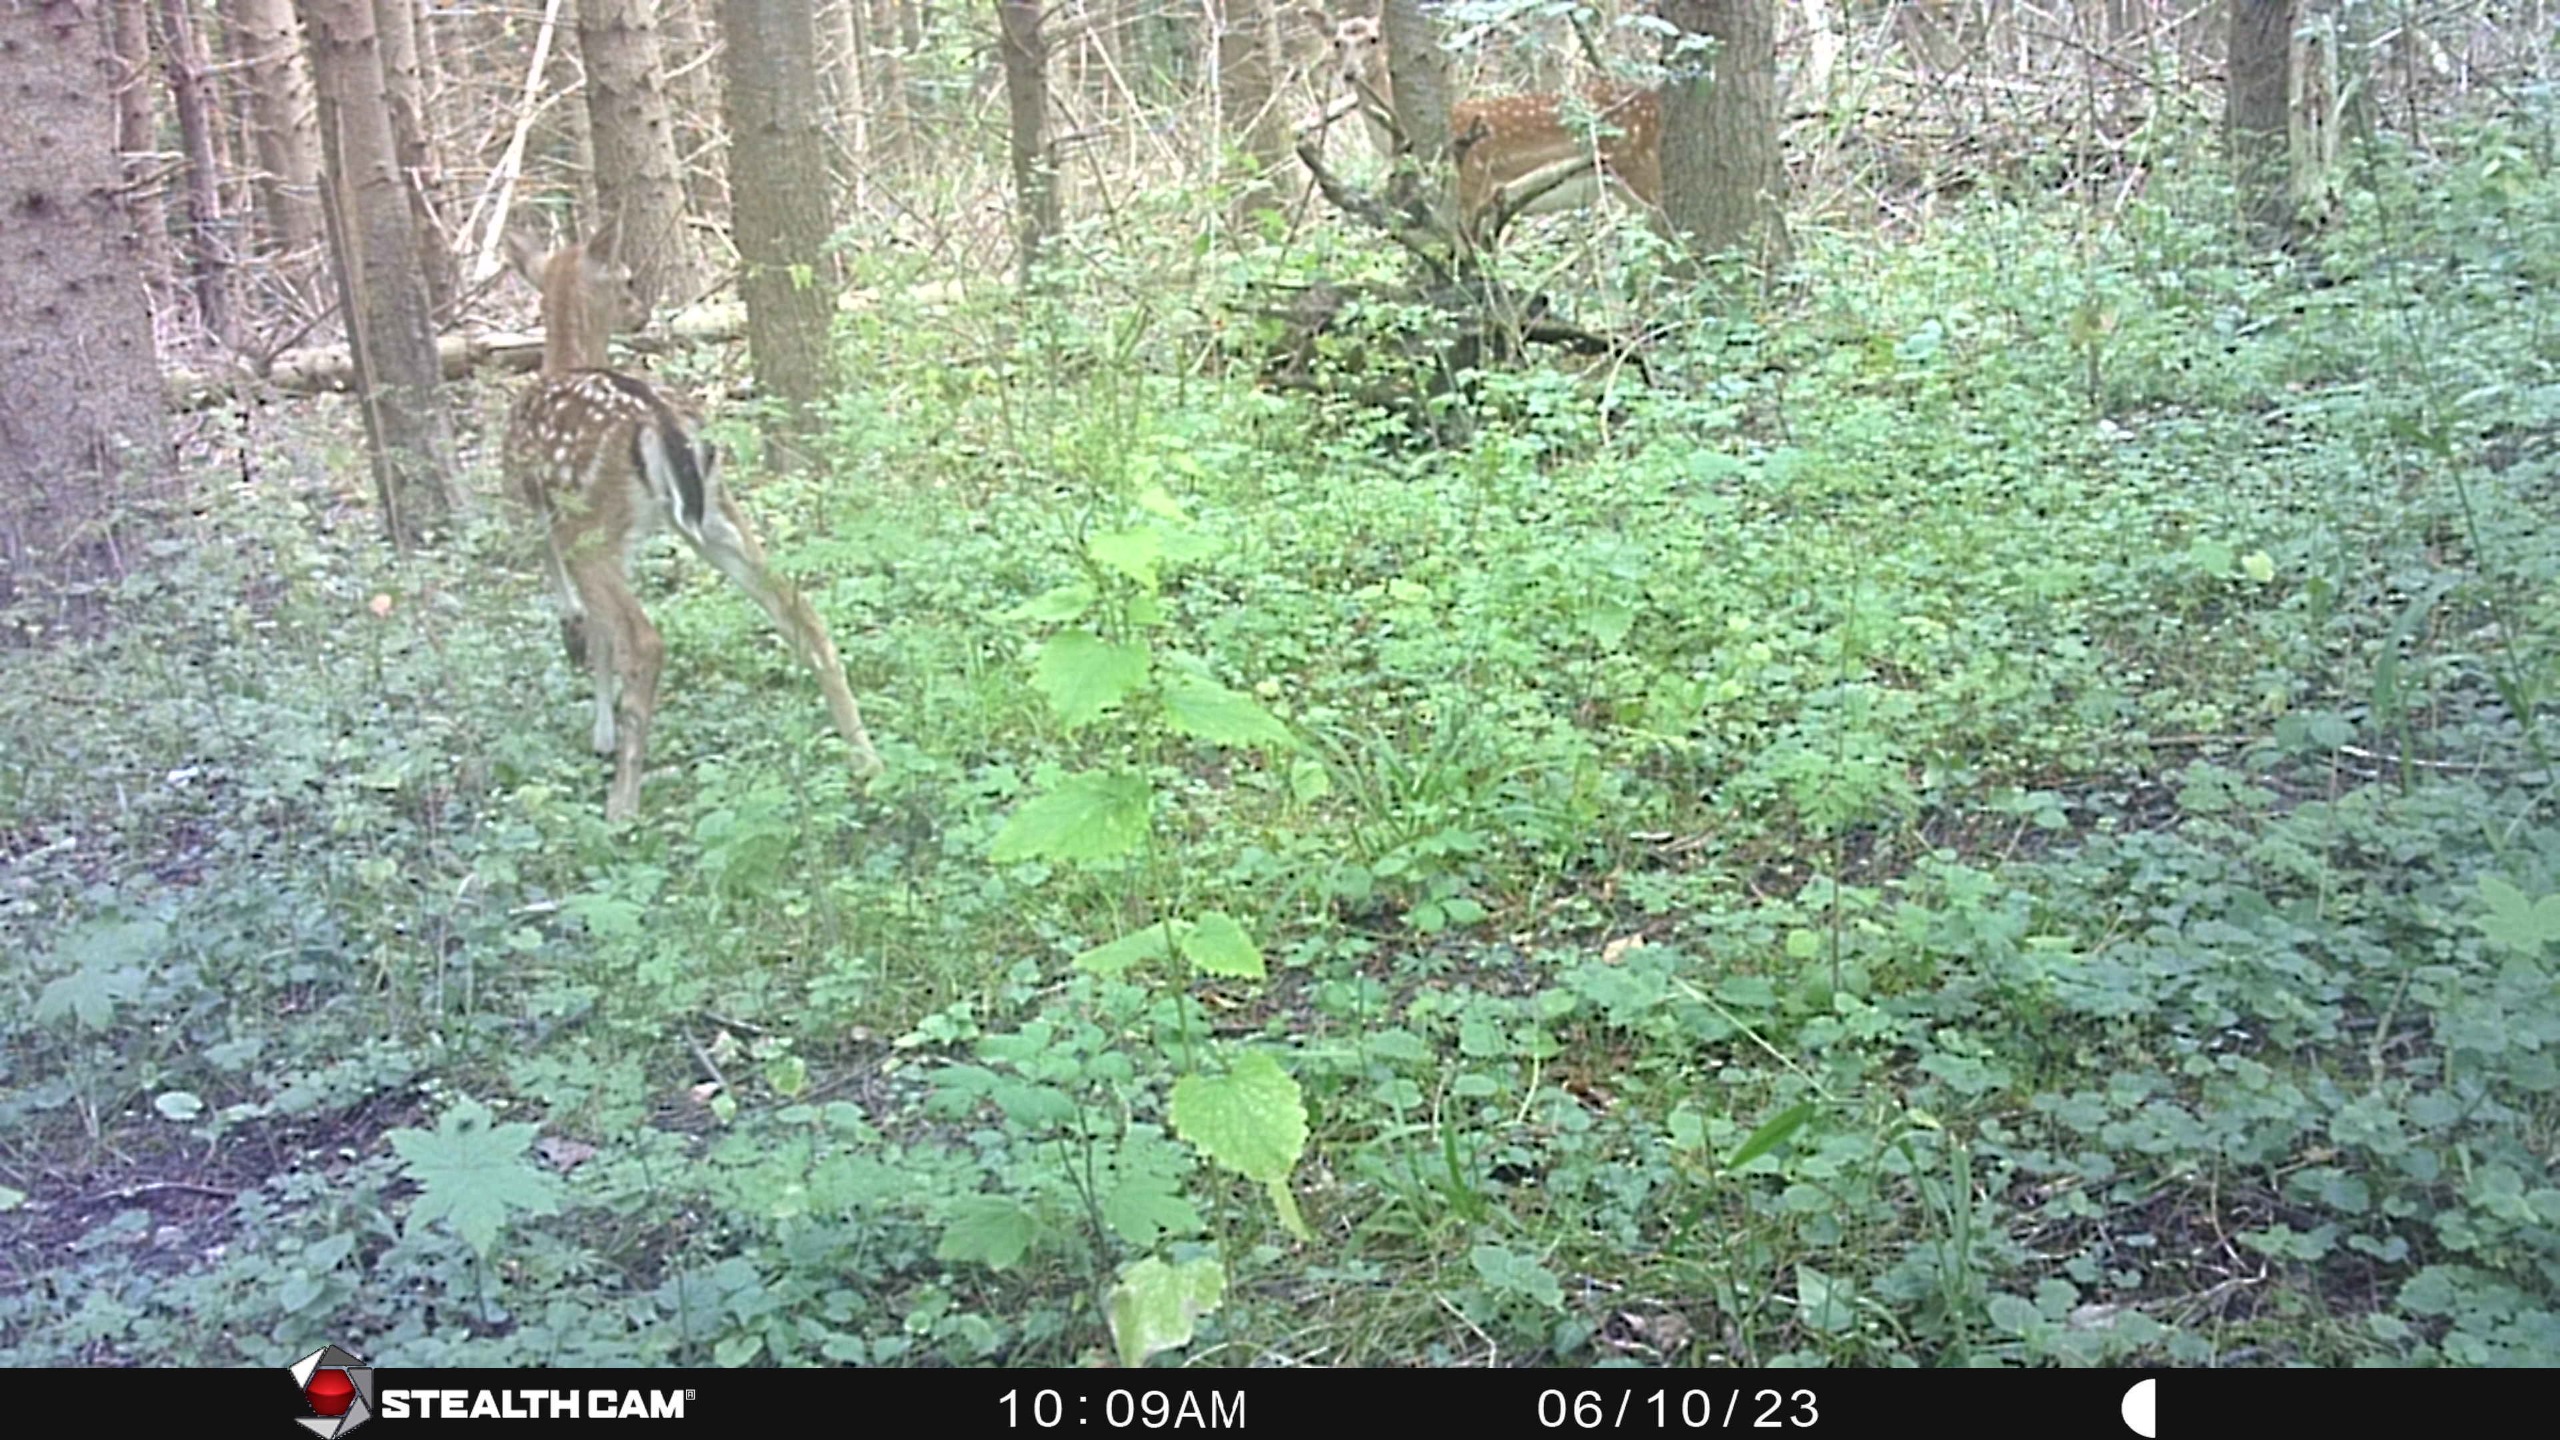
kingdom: Animalia
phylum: Chordata
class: Mammalia
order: Artiodactyla
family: Cervidae
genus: Dama
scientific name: Dama dama
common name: Dådyr
